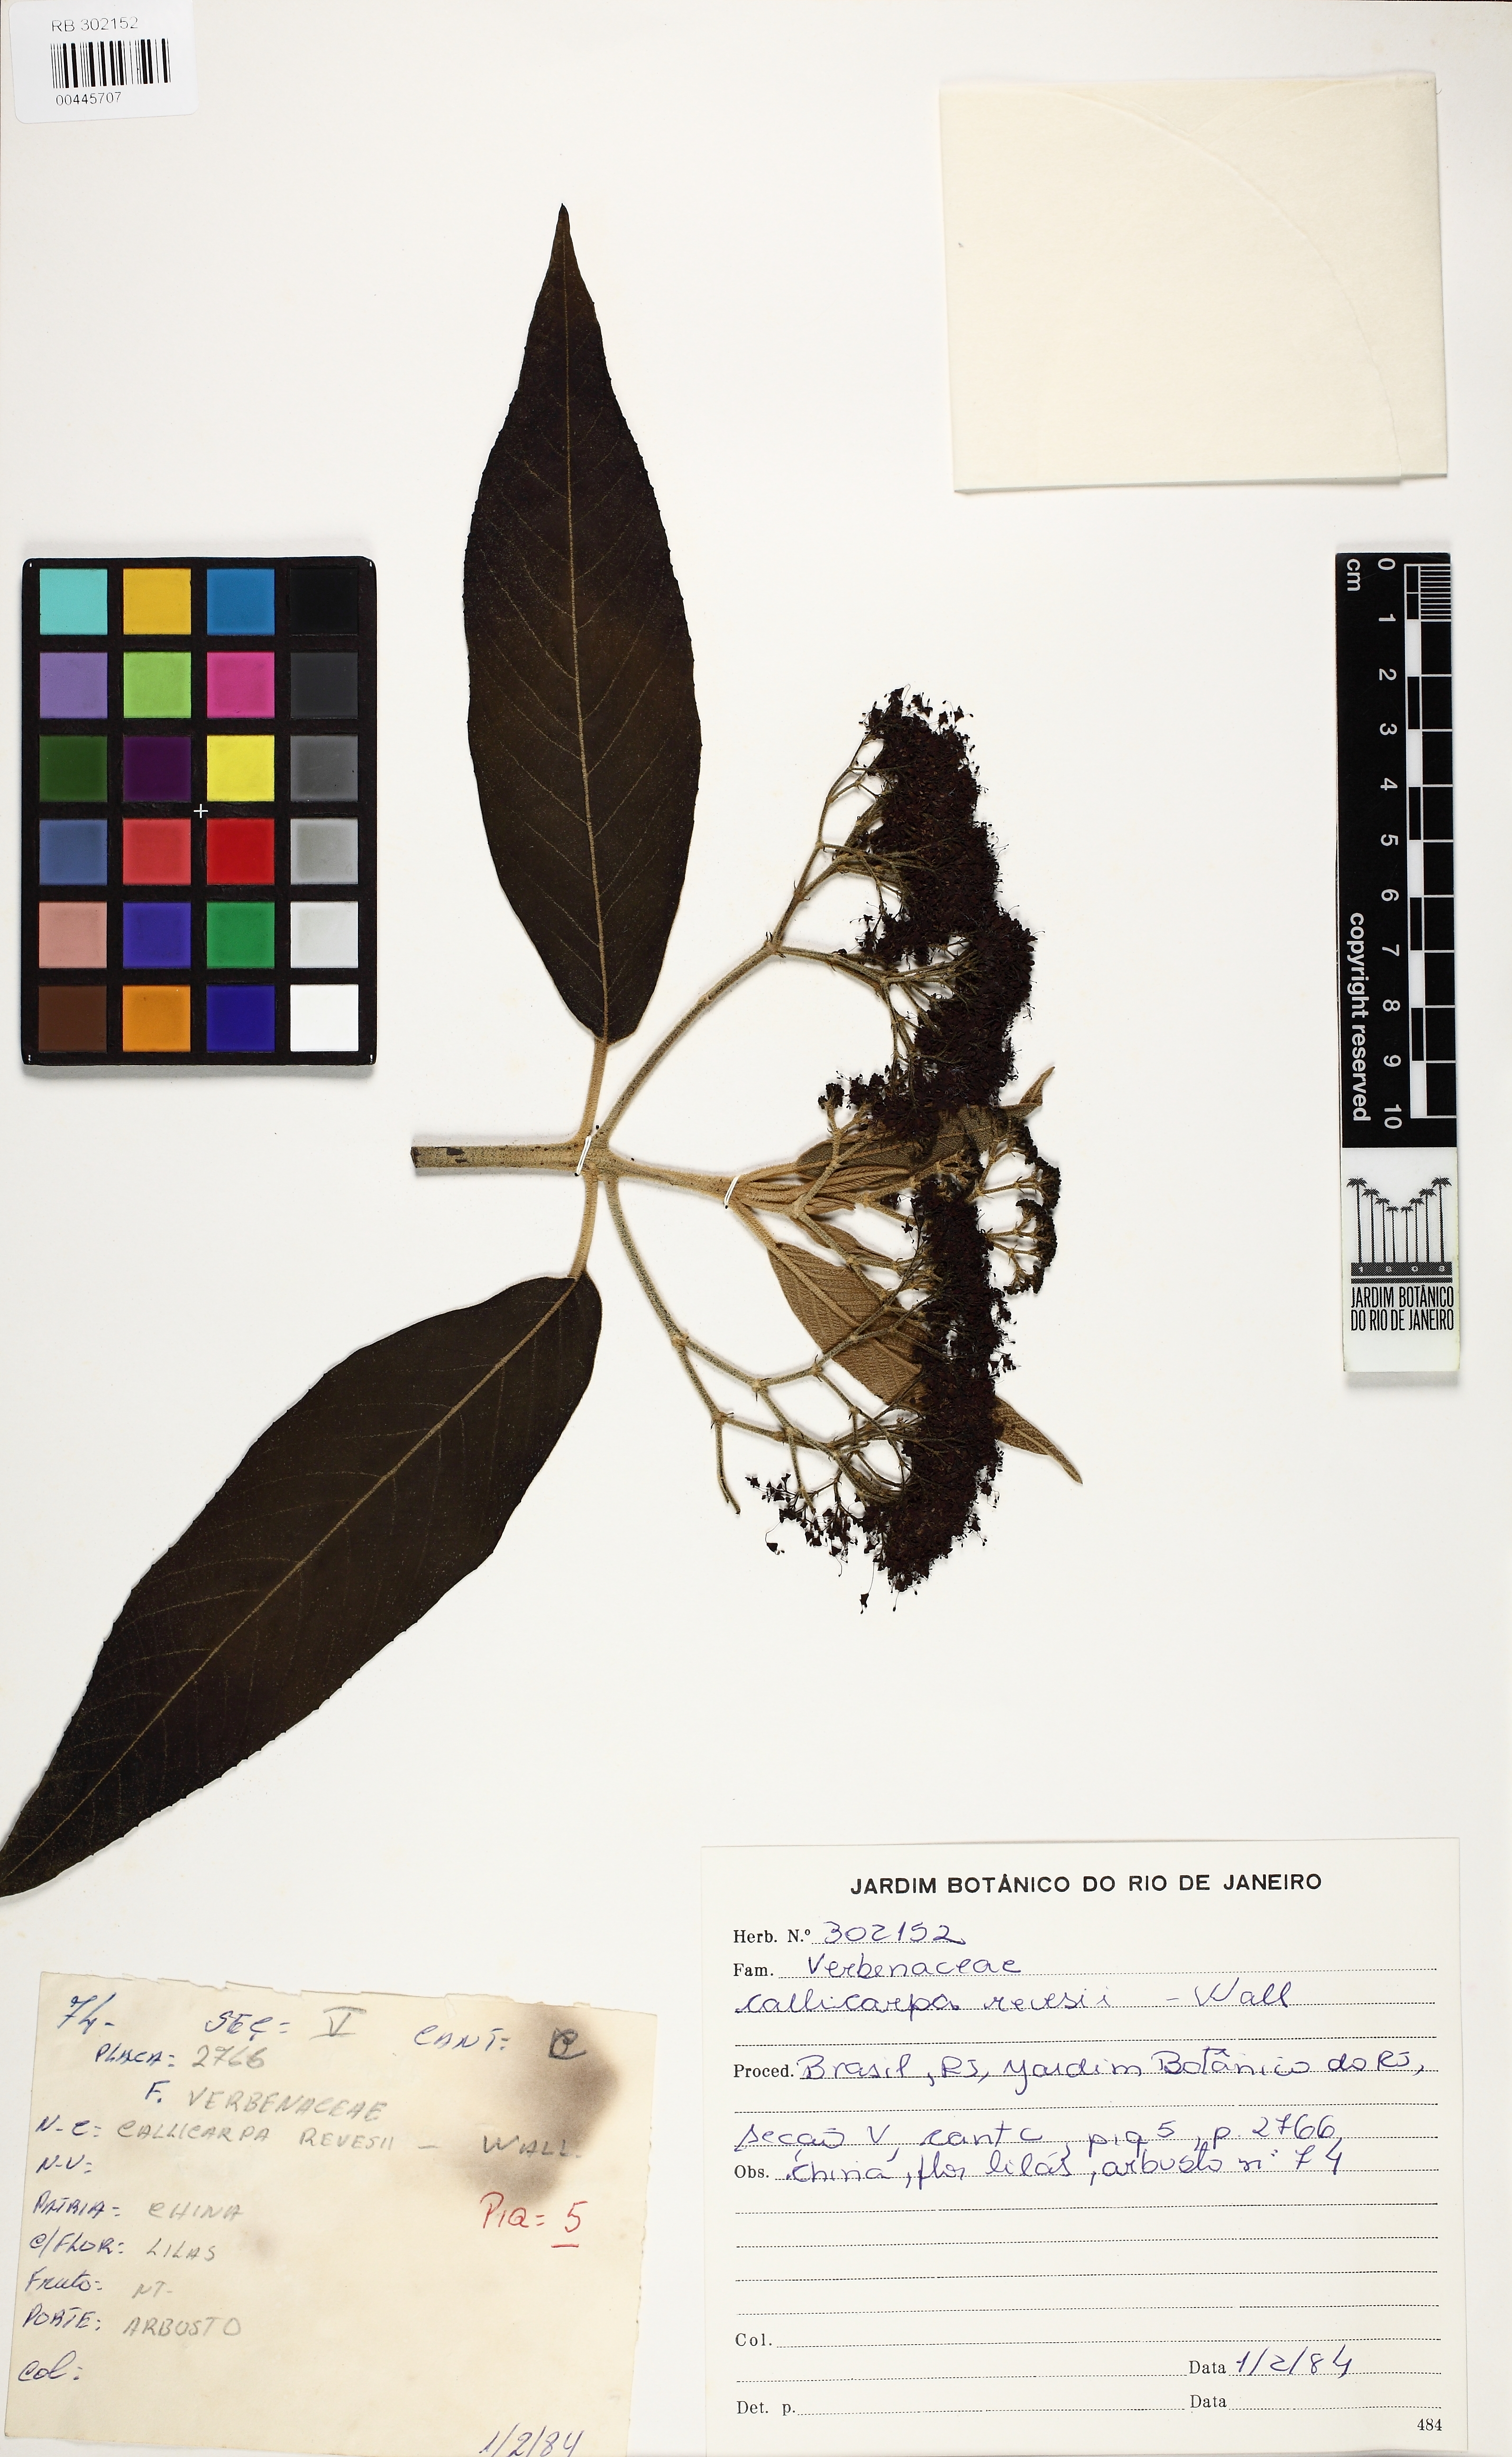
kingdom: Plantae
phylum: Tracheophyta
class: Magnoliopsida
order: Lamiales
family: Lamiaceae
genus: Callicarpa
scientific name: Callicarpa reevesii
